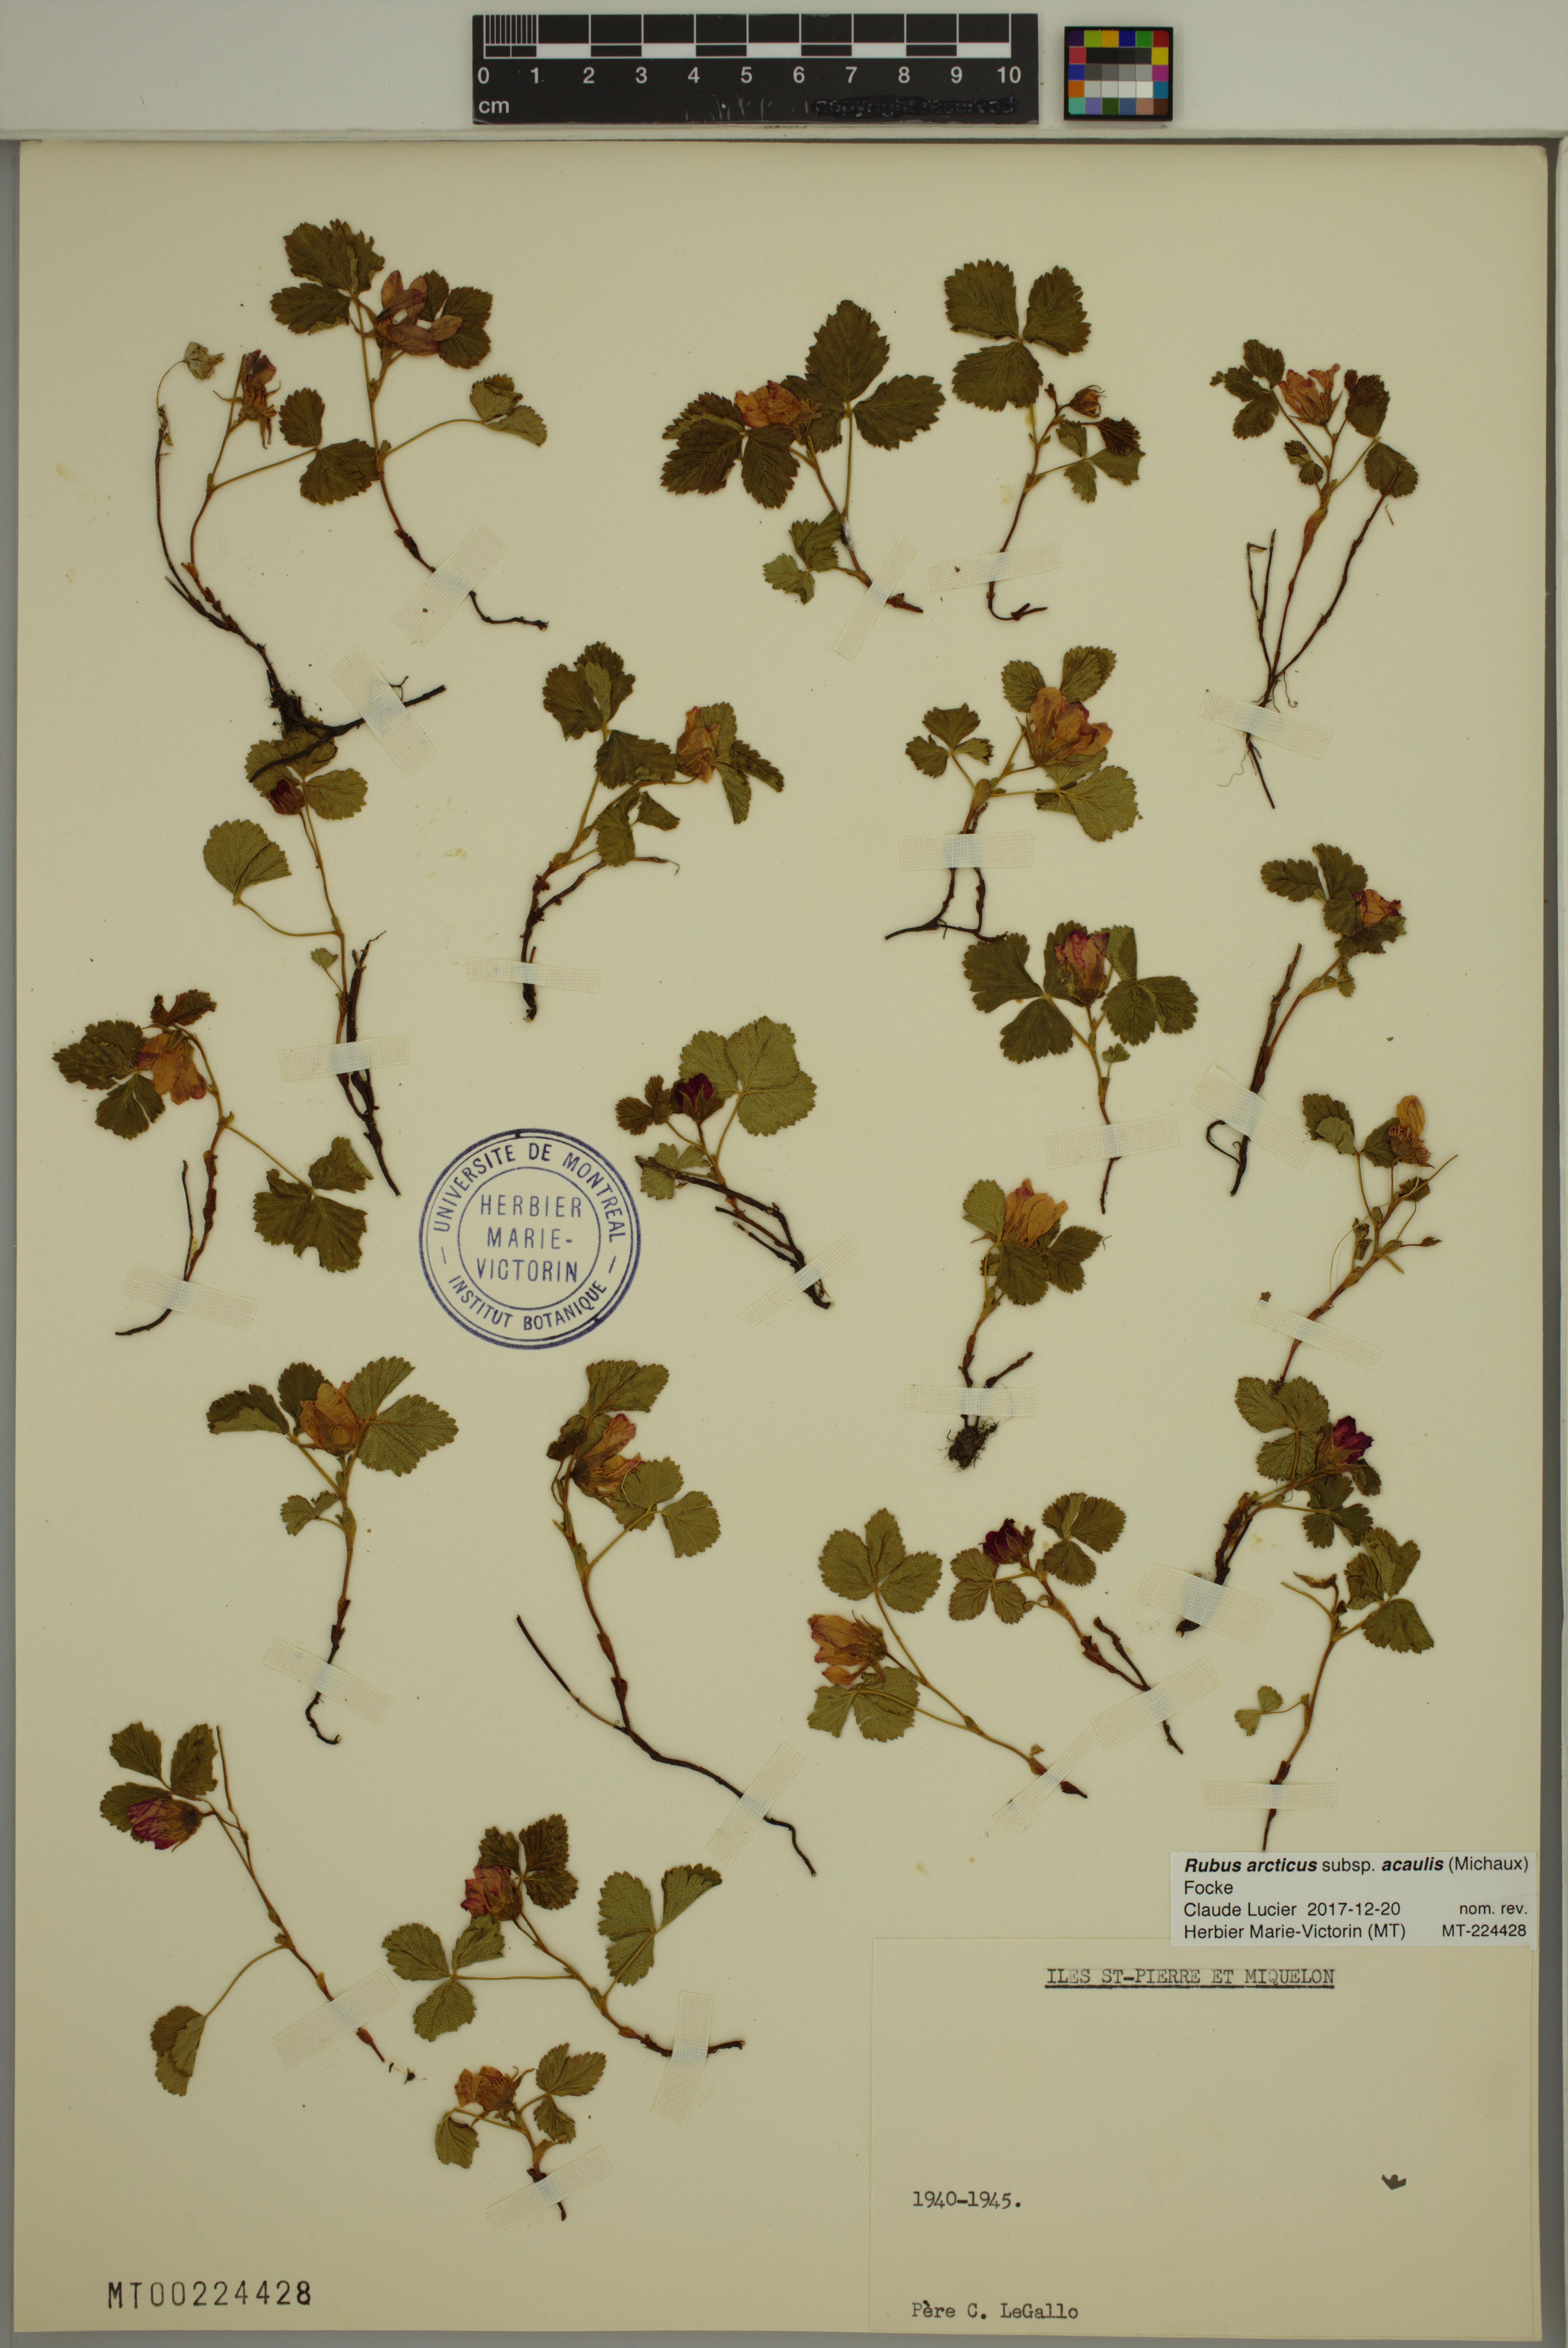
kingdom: Plantae
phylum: Tracheophyta
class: Magnoliopsida
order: Rosales
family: Rosaceae
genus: Rubus
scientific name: Rubus arcticus
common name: Arctic bramble
